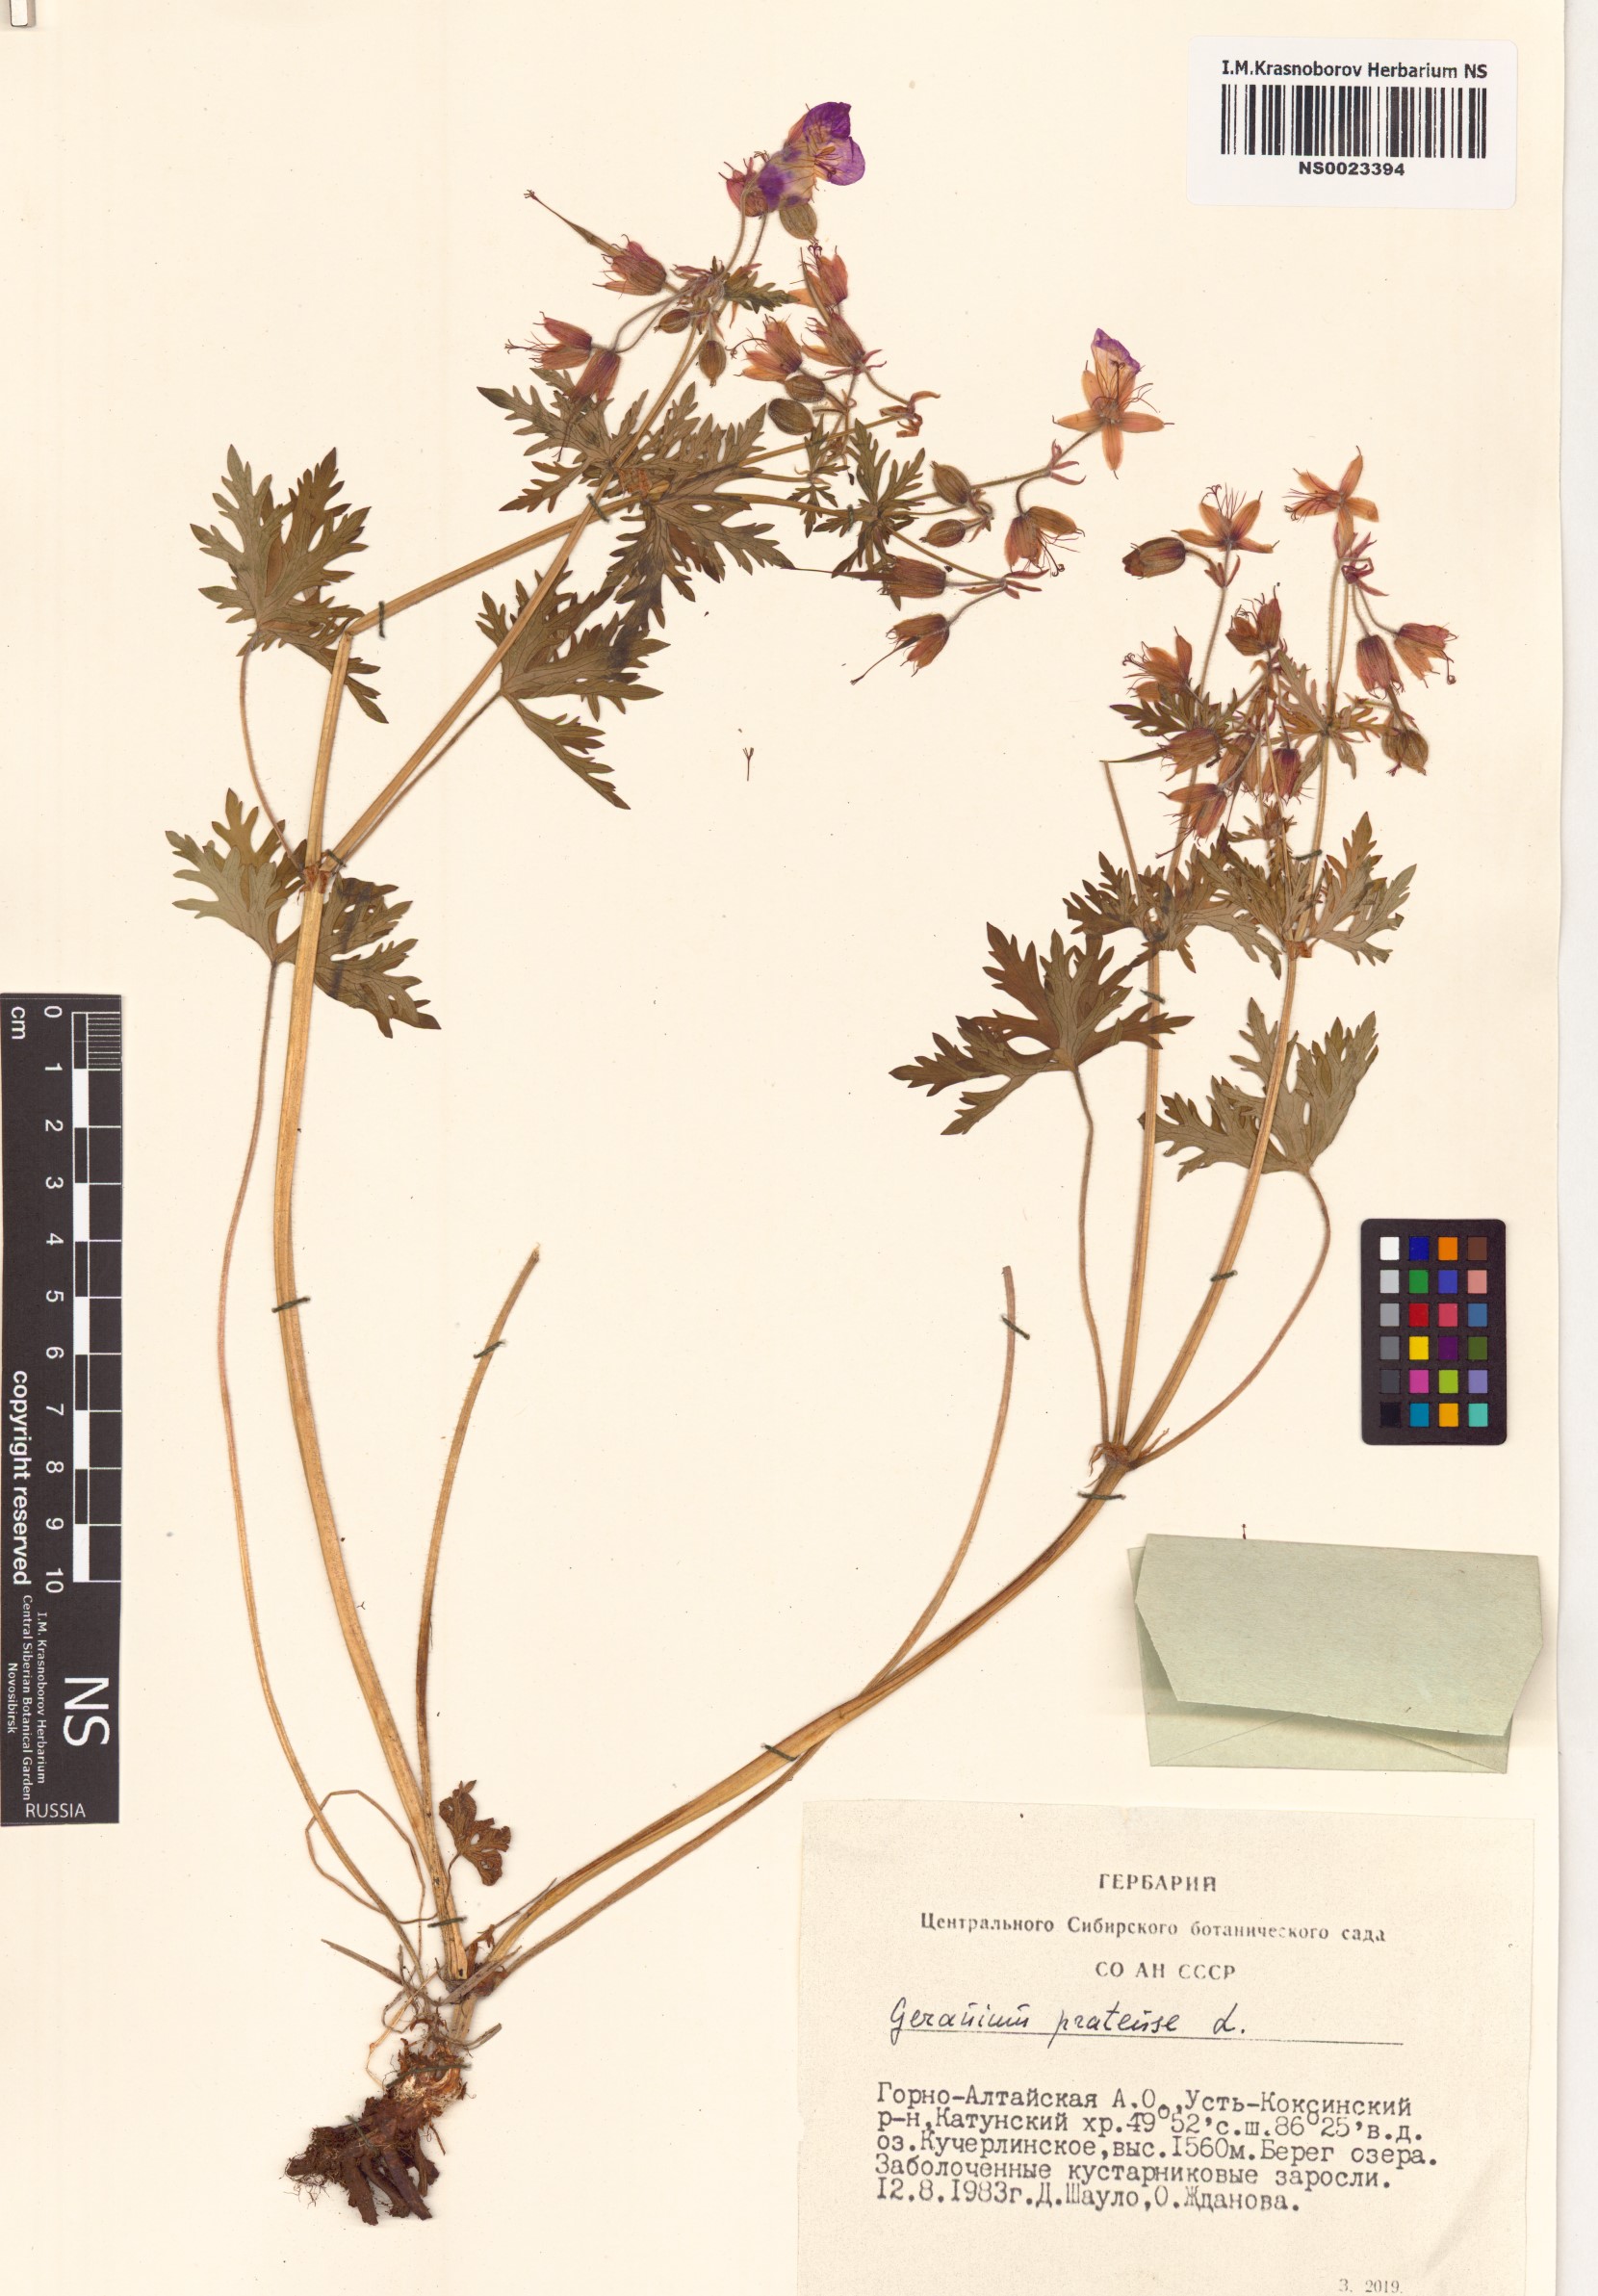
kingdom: Plantae
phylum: Tracheophyta
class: Magnoliopsida
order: Geraniales
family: Geraniaceae
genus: Geranium
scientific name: Geranium pratense
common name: Meadow crane's-bill
